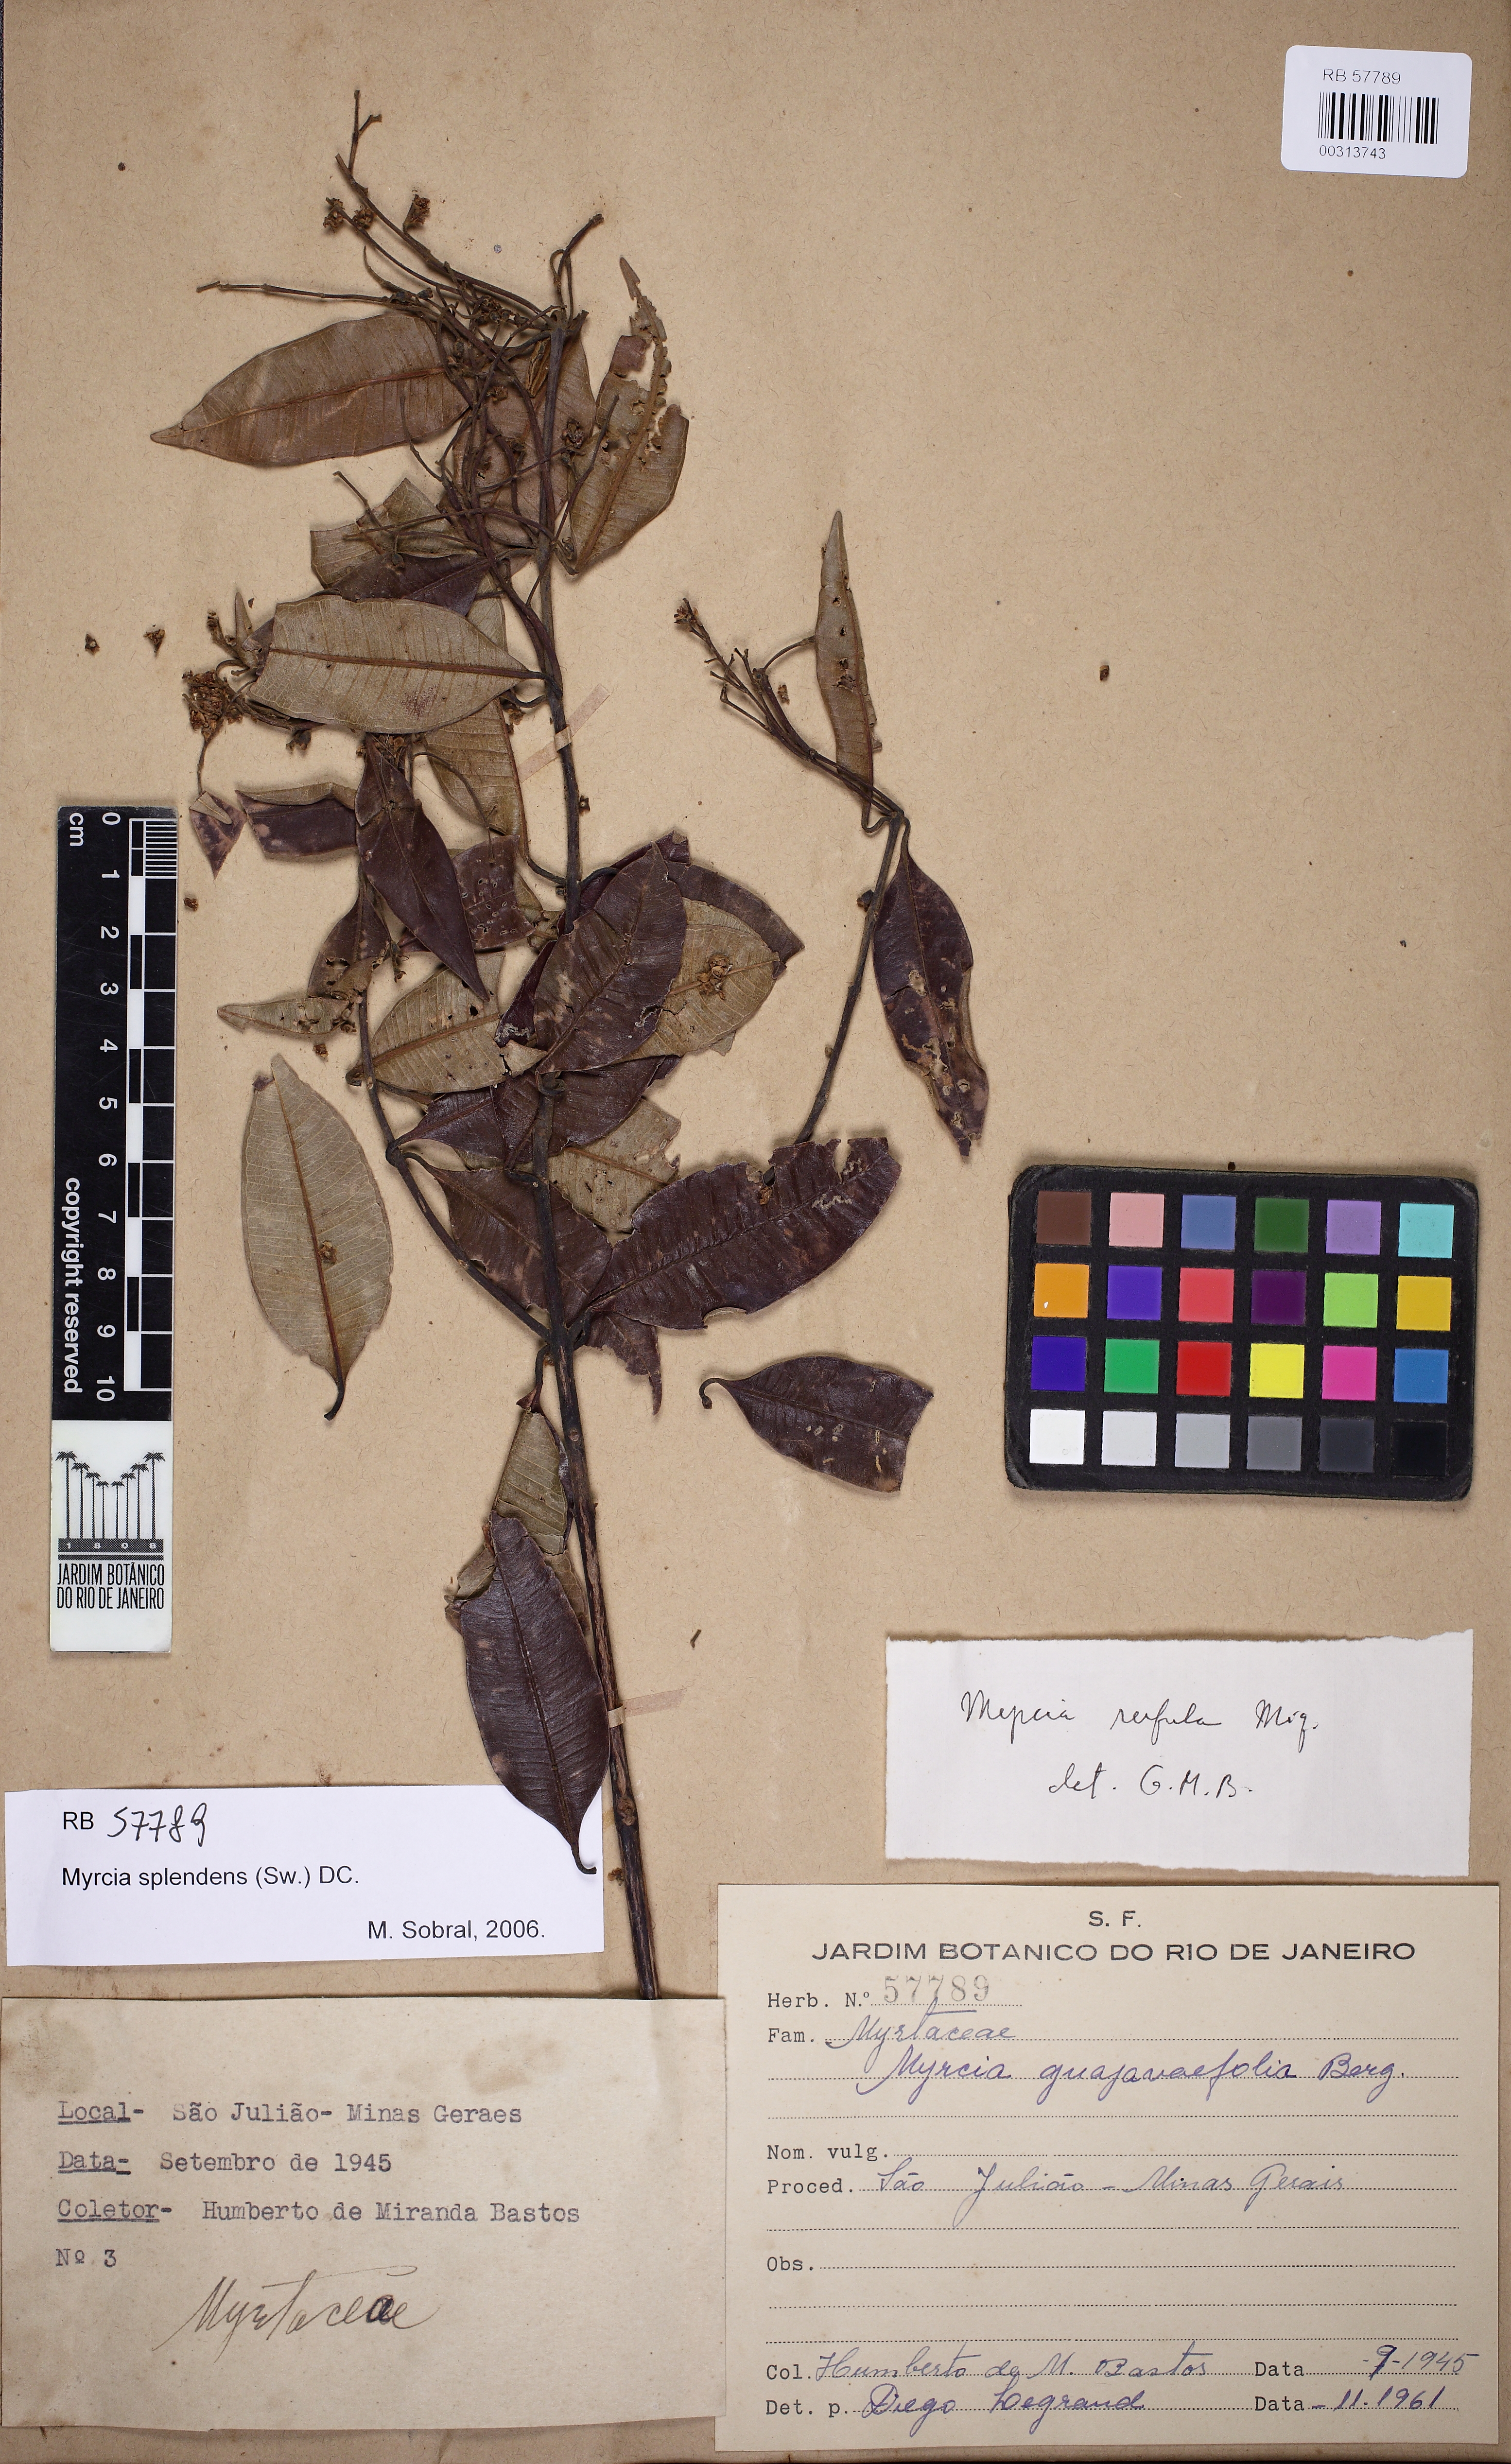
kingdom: Plantae
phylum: Tracheophyta
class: Magnoliopsida
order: Myrtales
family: Myrtaceae
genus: Myrcia
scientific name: Myrcia splendens
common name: Surinam cherry
